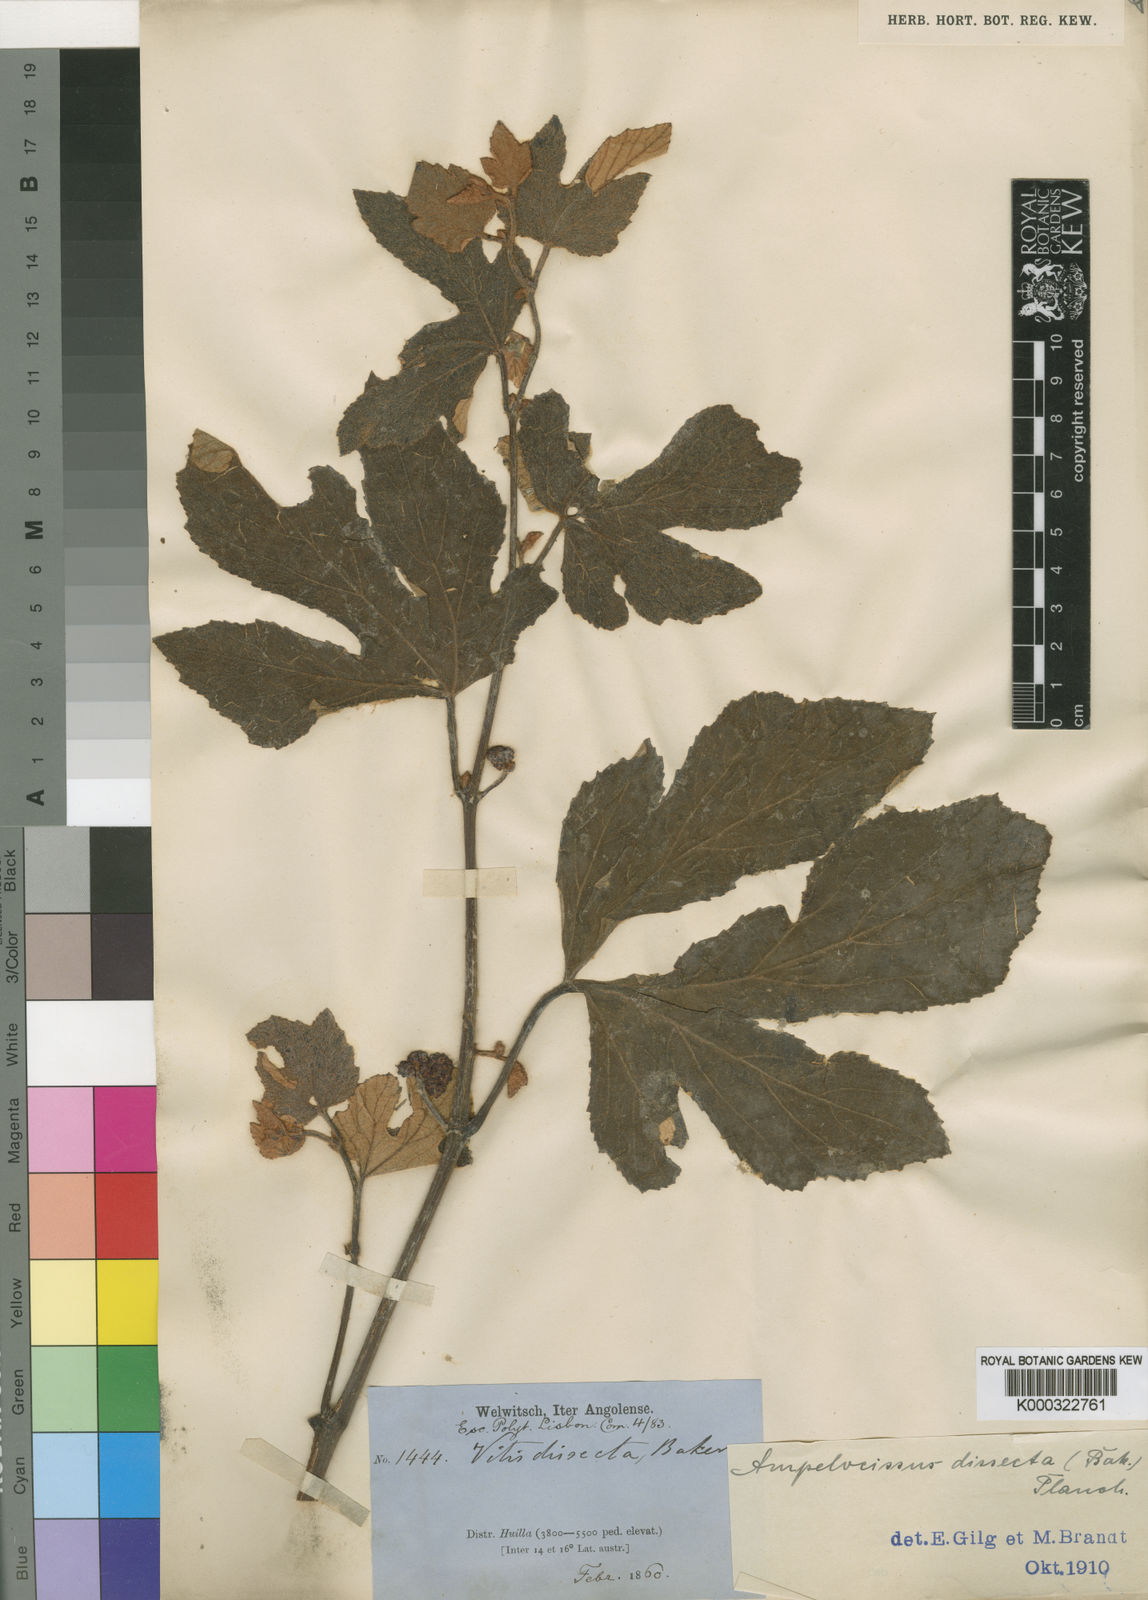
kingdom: Plantae
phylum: Tracheophyta
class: Magnoliopsida
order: Vitales
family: Vitaceae
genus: Ampelocissus
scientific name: Ampelocissus dissecta
